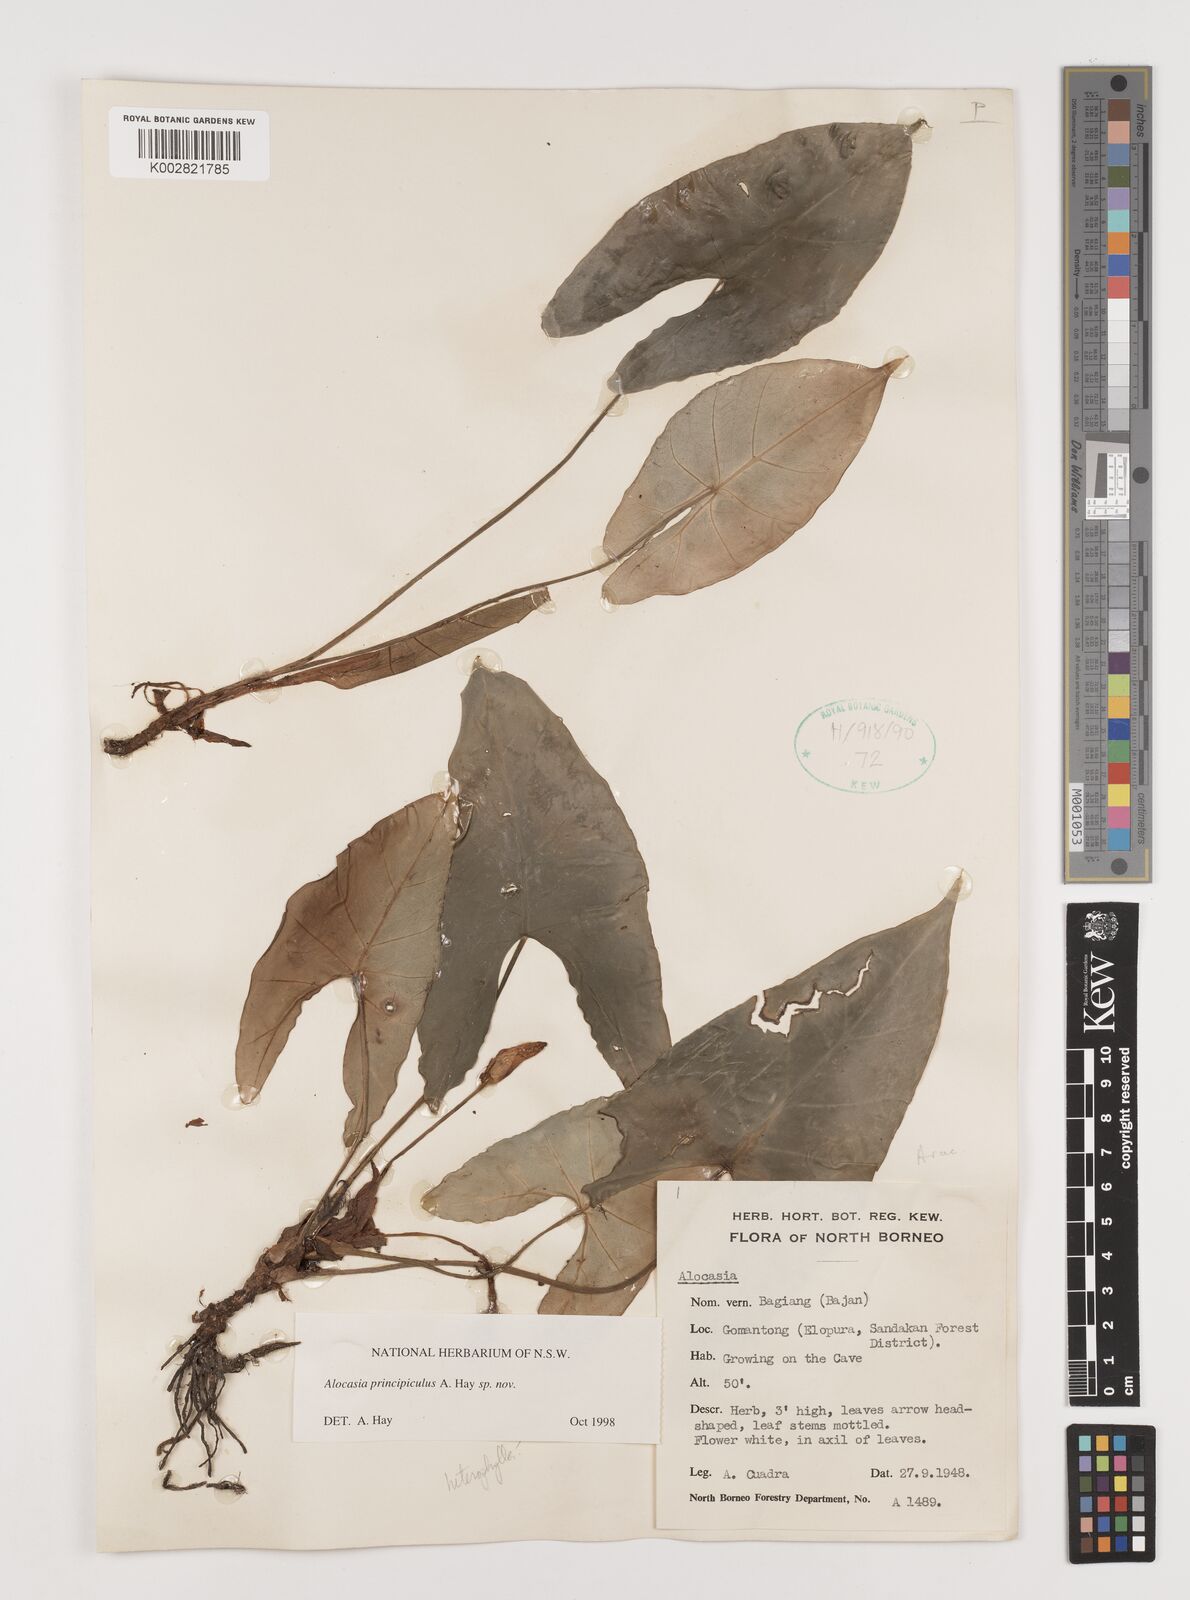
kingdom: Plantae
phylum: Tracheophyta
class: Liliopsida
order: Alismatales
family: Araceae
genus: Alocasia
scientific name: Alocasia princeps
